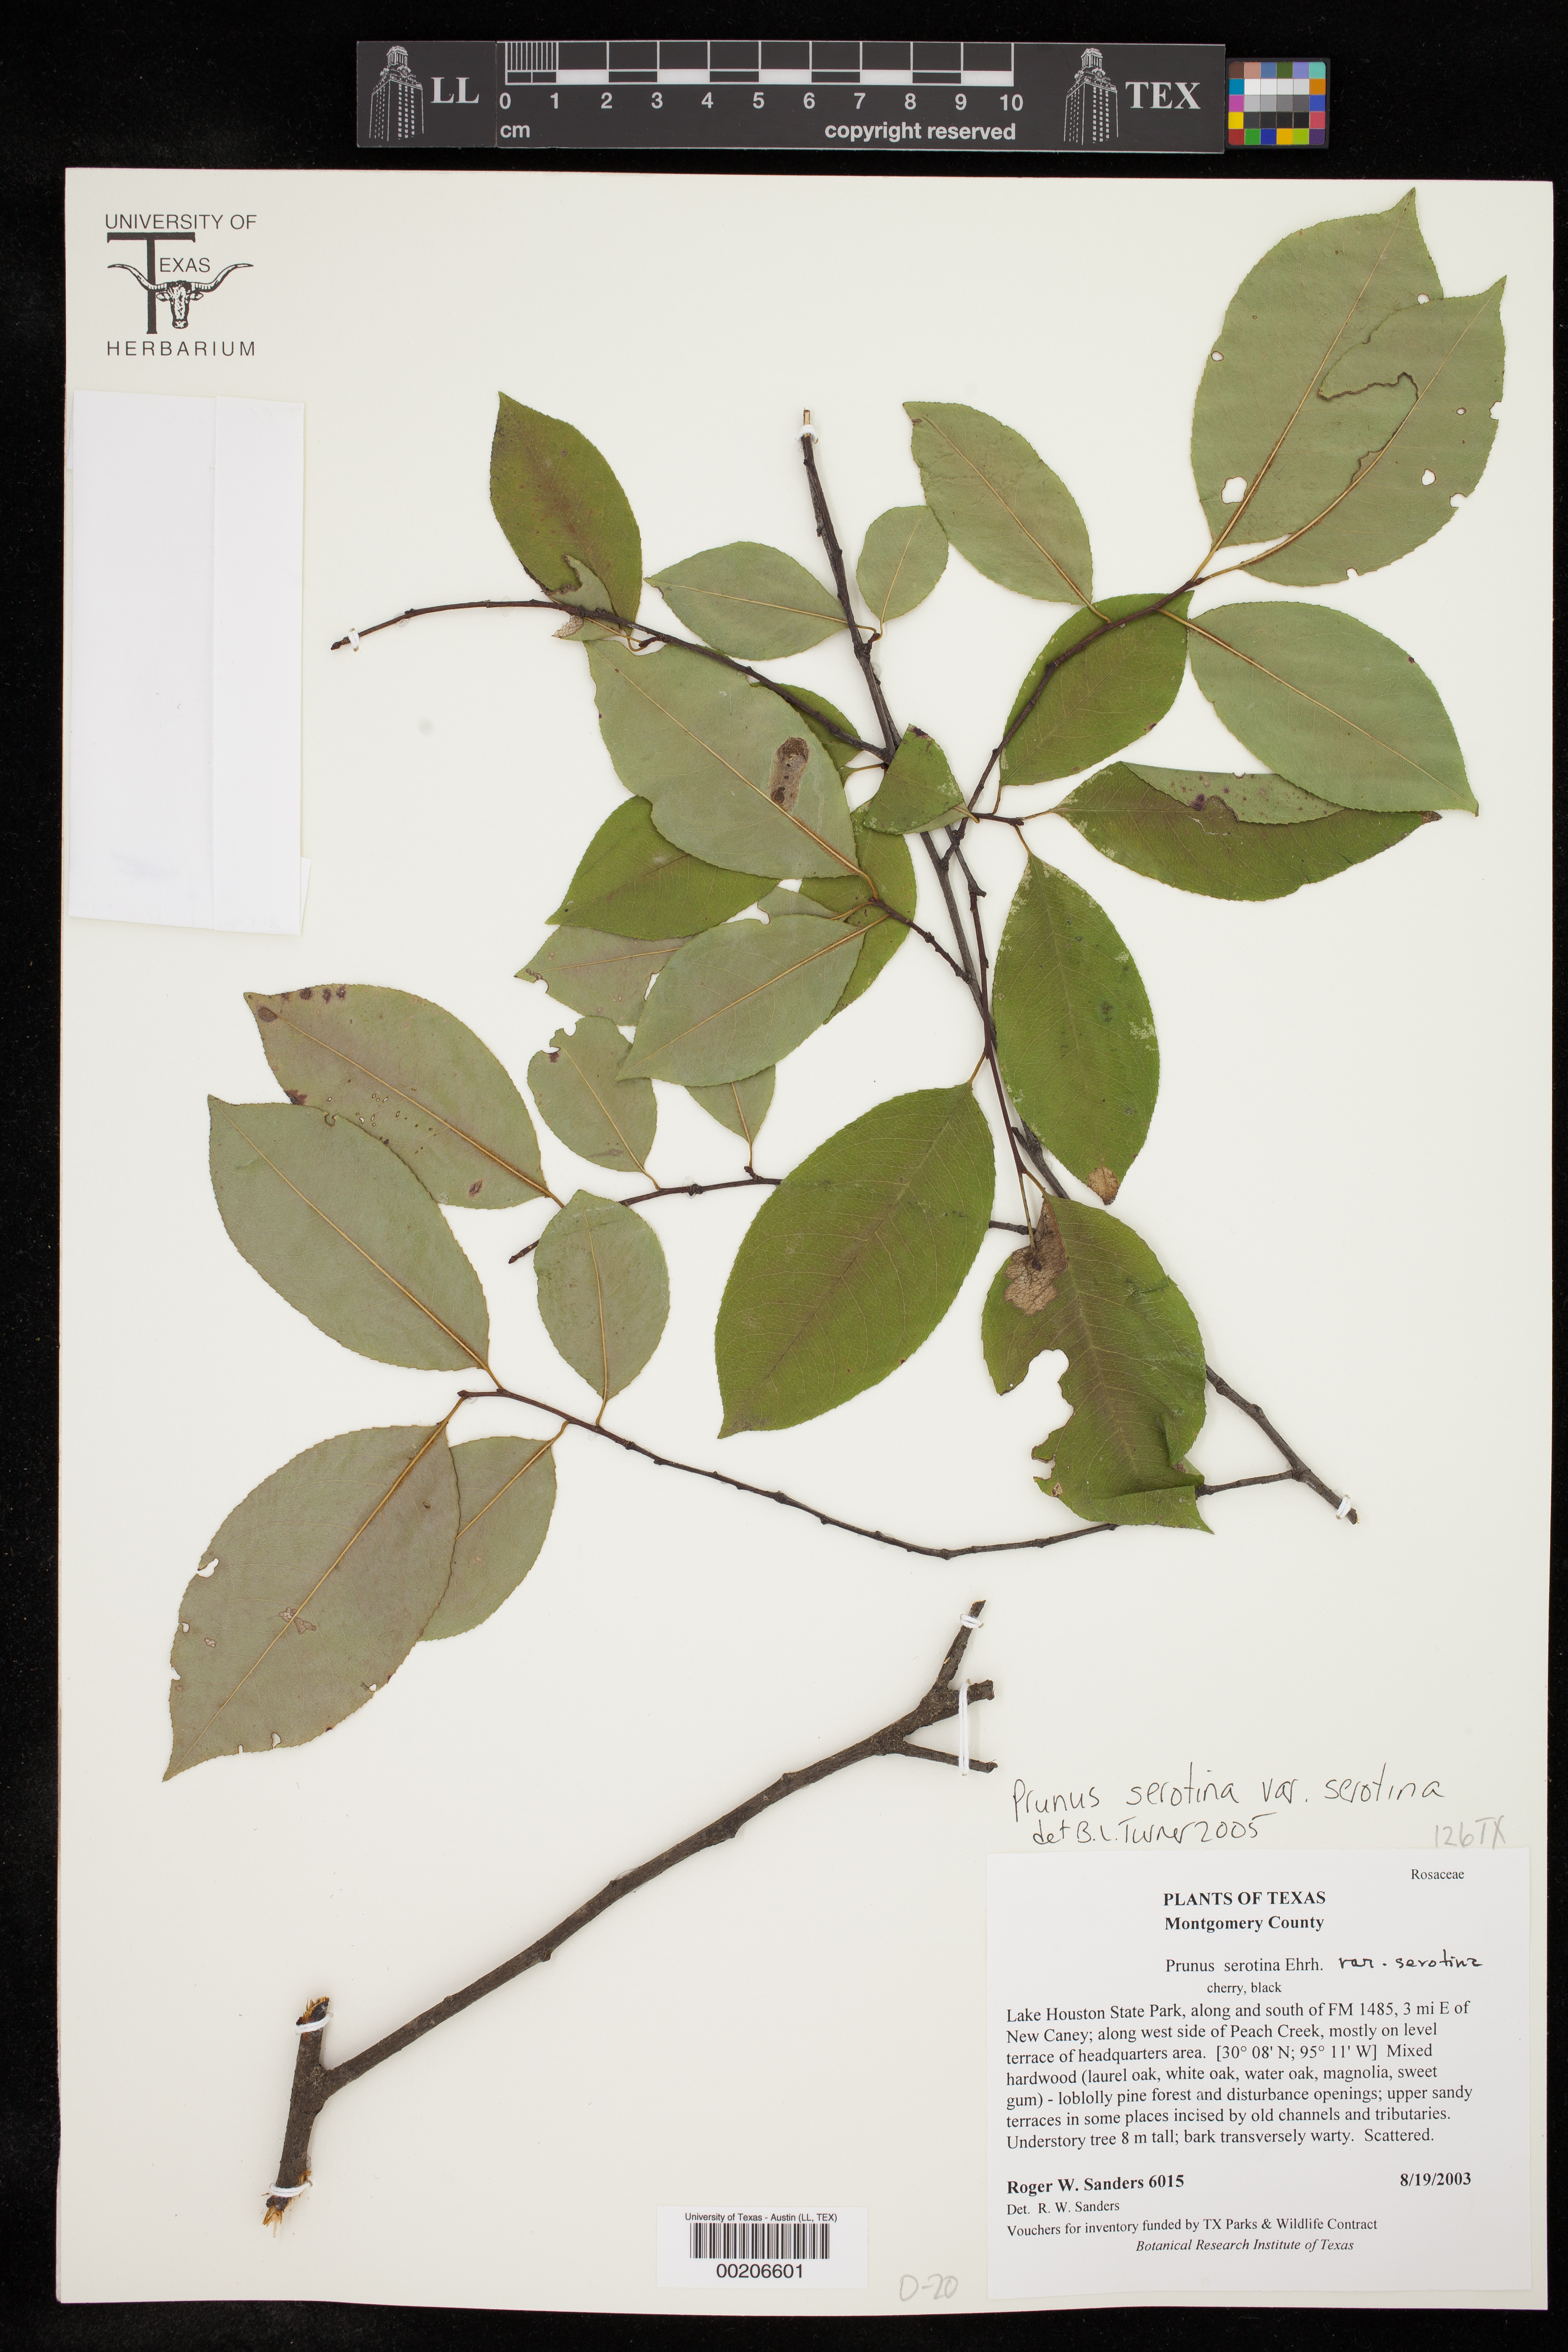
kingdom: Plantae
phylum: Tracheophyta
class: Magnoliopsida
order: Rosales
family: Rosaceae
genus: Prunus
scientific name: Prunus serotina
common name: Black cherry
